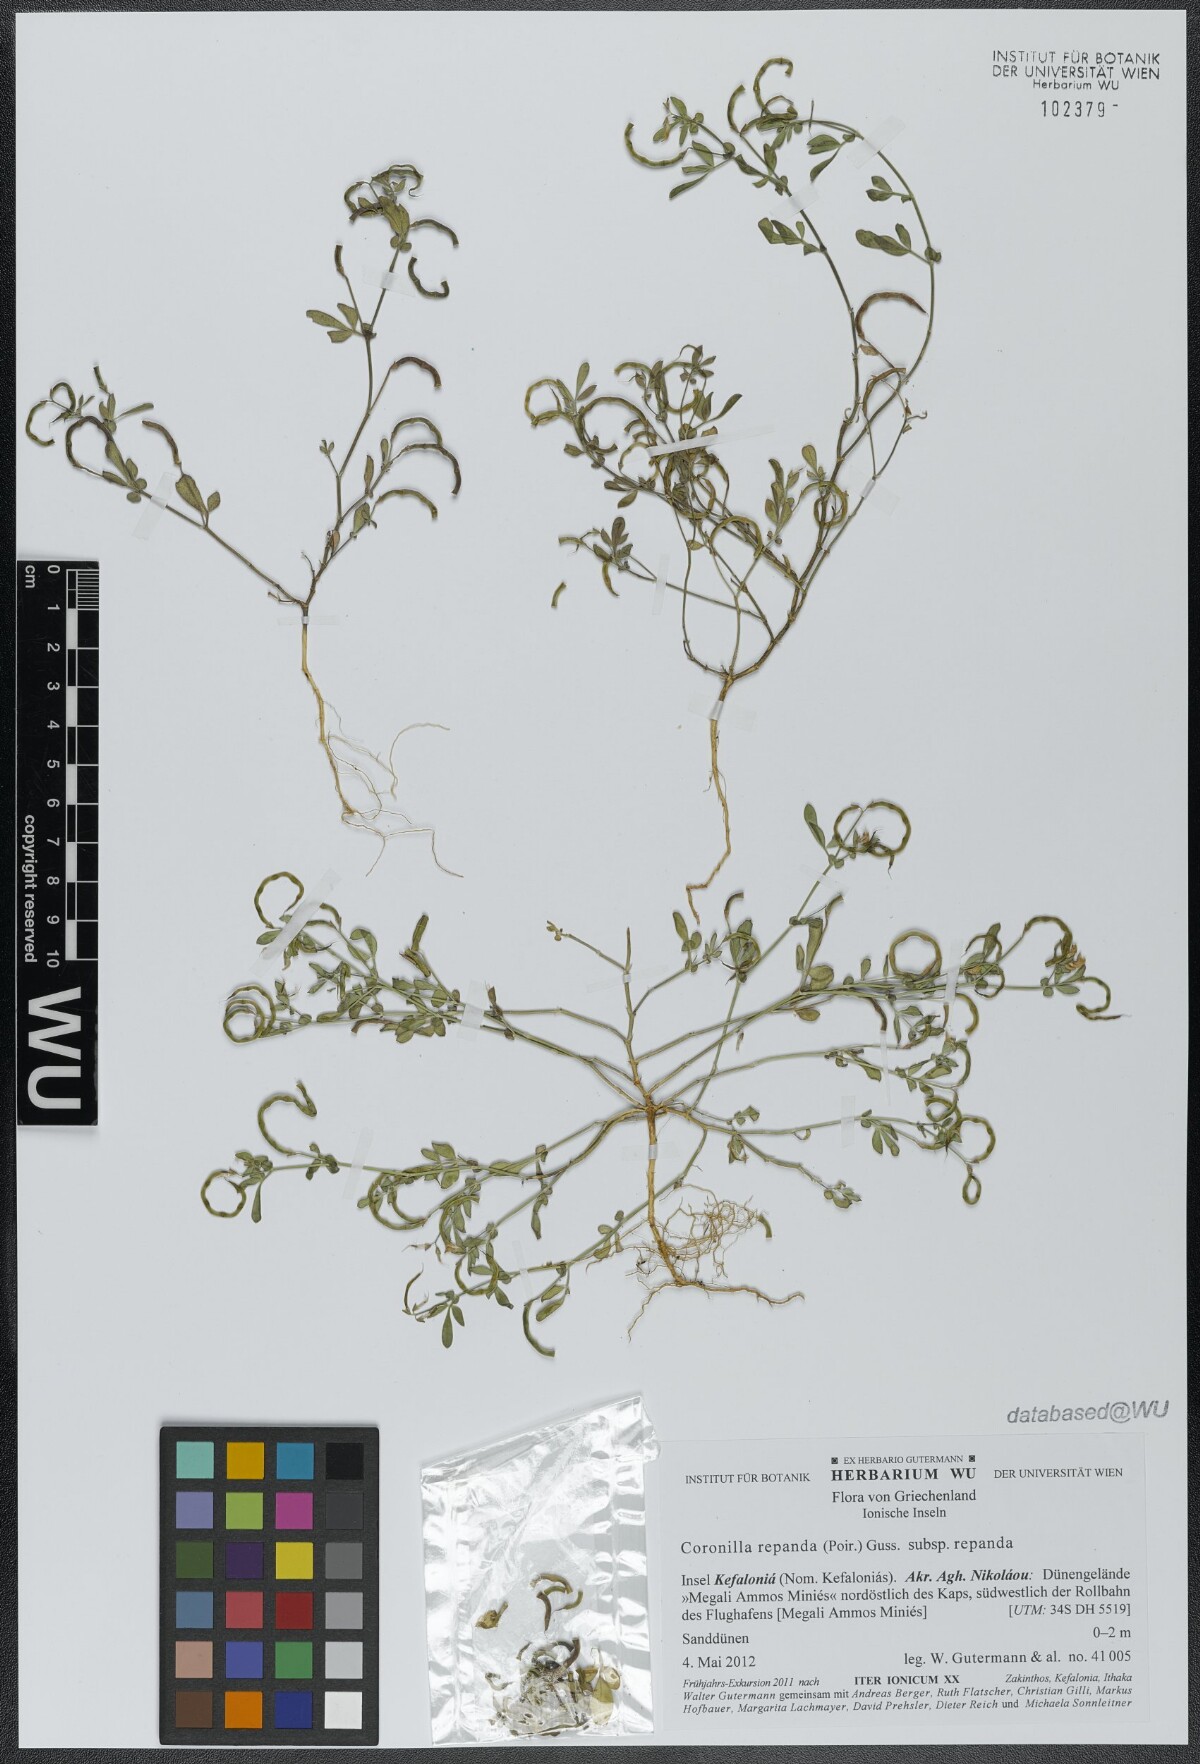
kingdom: Plantae
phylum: Tracheophyta
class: Magnoliopsida
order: Fabales
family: Fabaceae
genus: Coronilla
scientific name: Coronilla repanda
